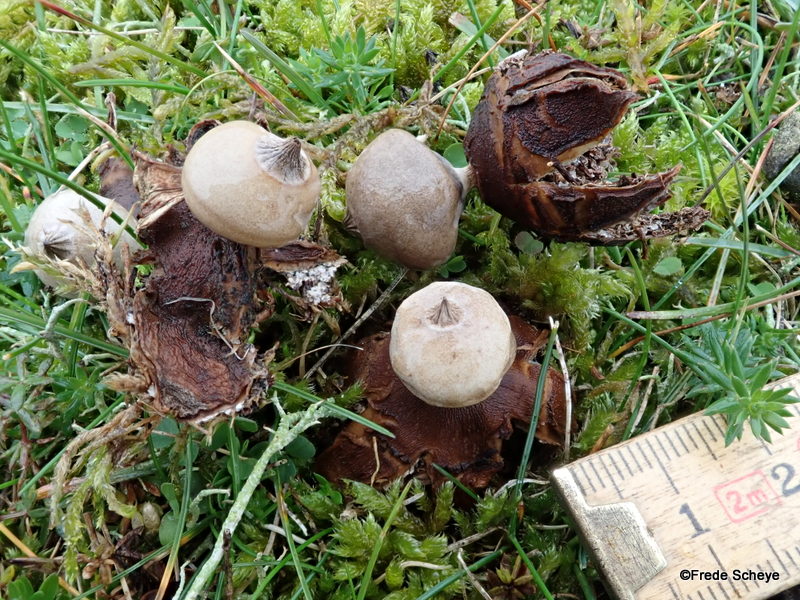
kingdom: Fungi
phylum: Basidiomycota
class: Agaricomycetes
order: Geastrales
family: Geastraceae
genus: Geastrum
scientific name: Geastrum striatum
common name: dværg-stjernebold
